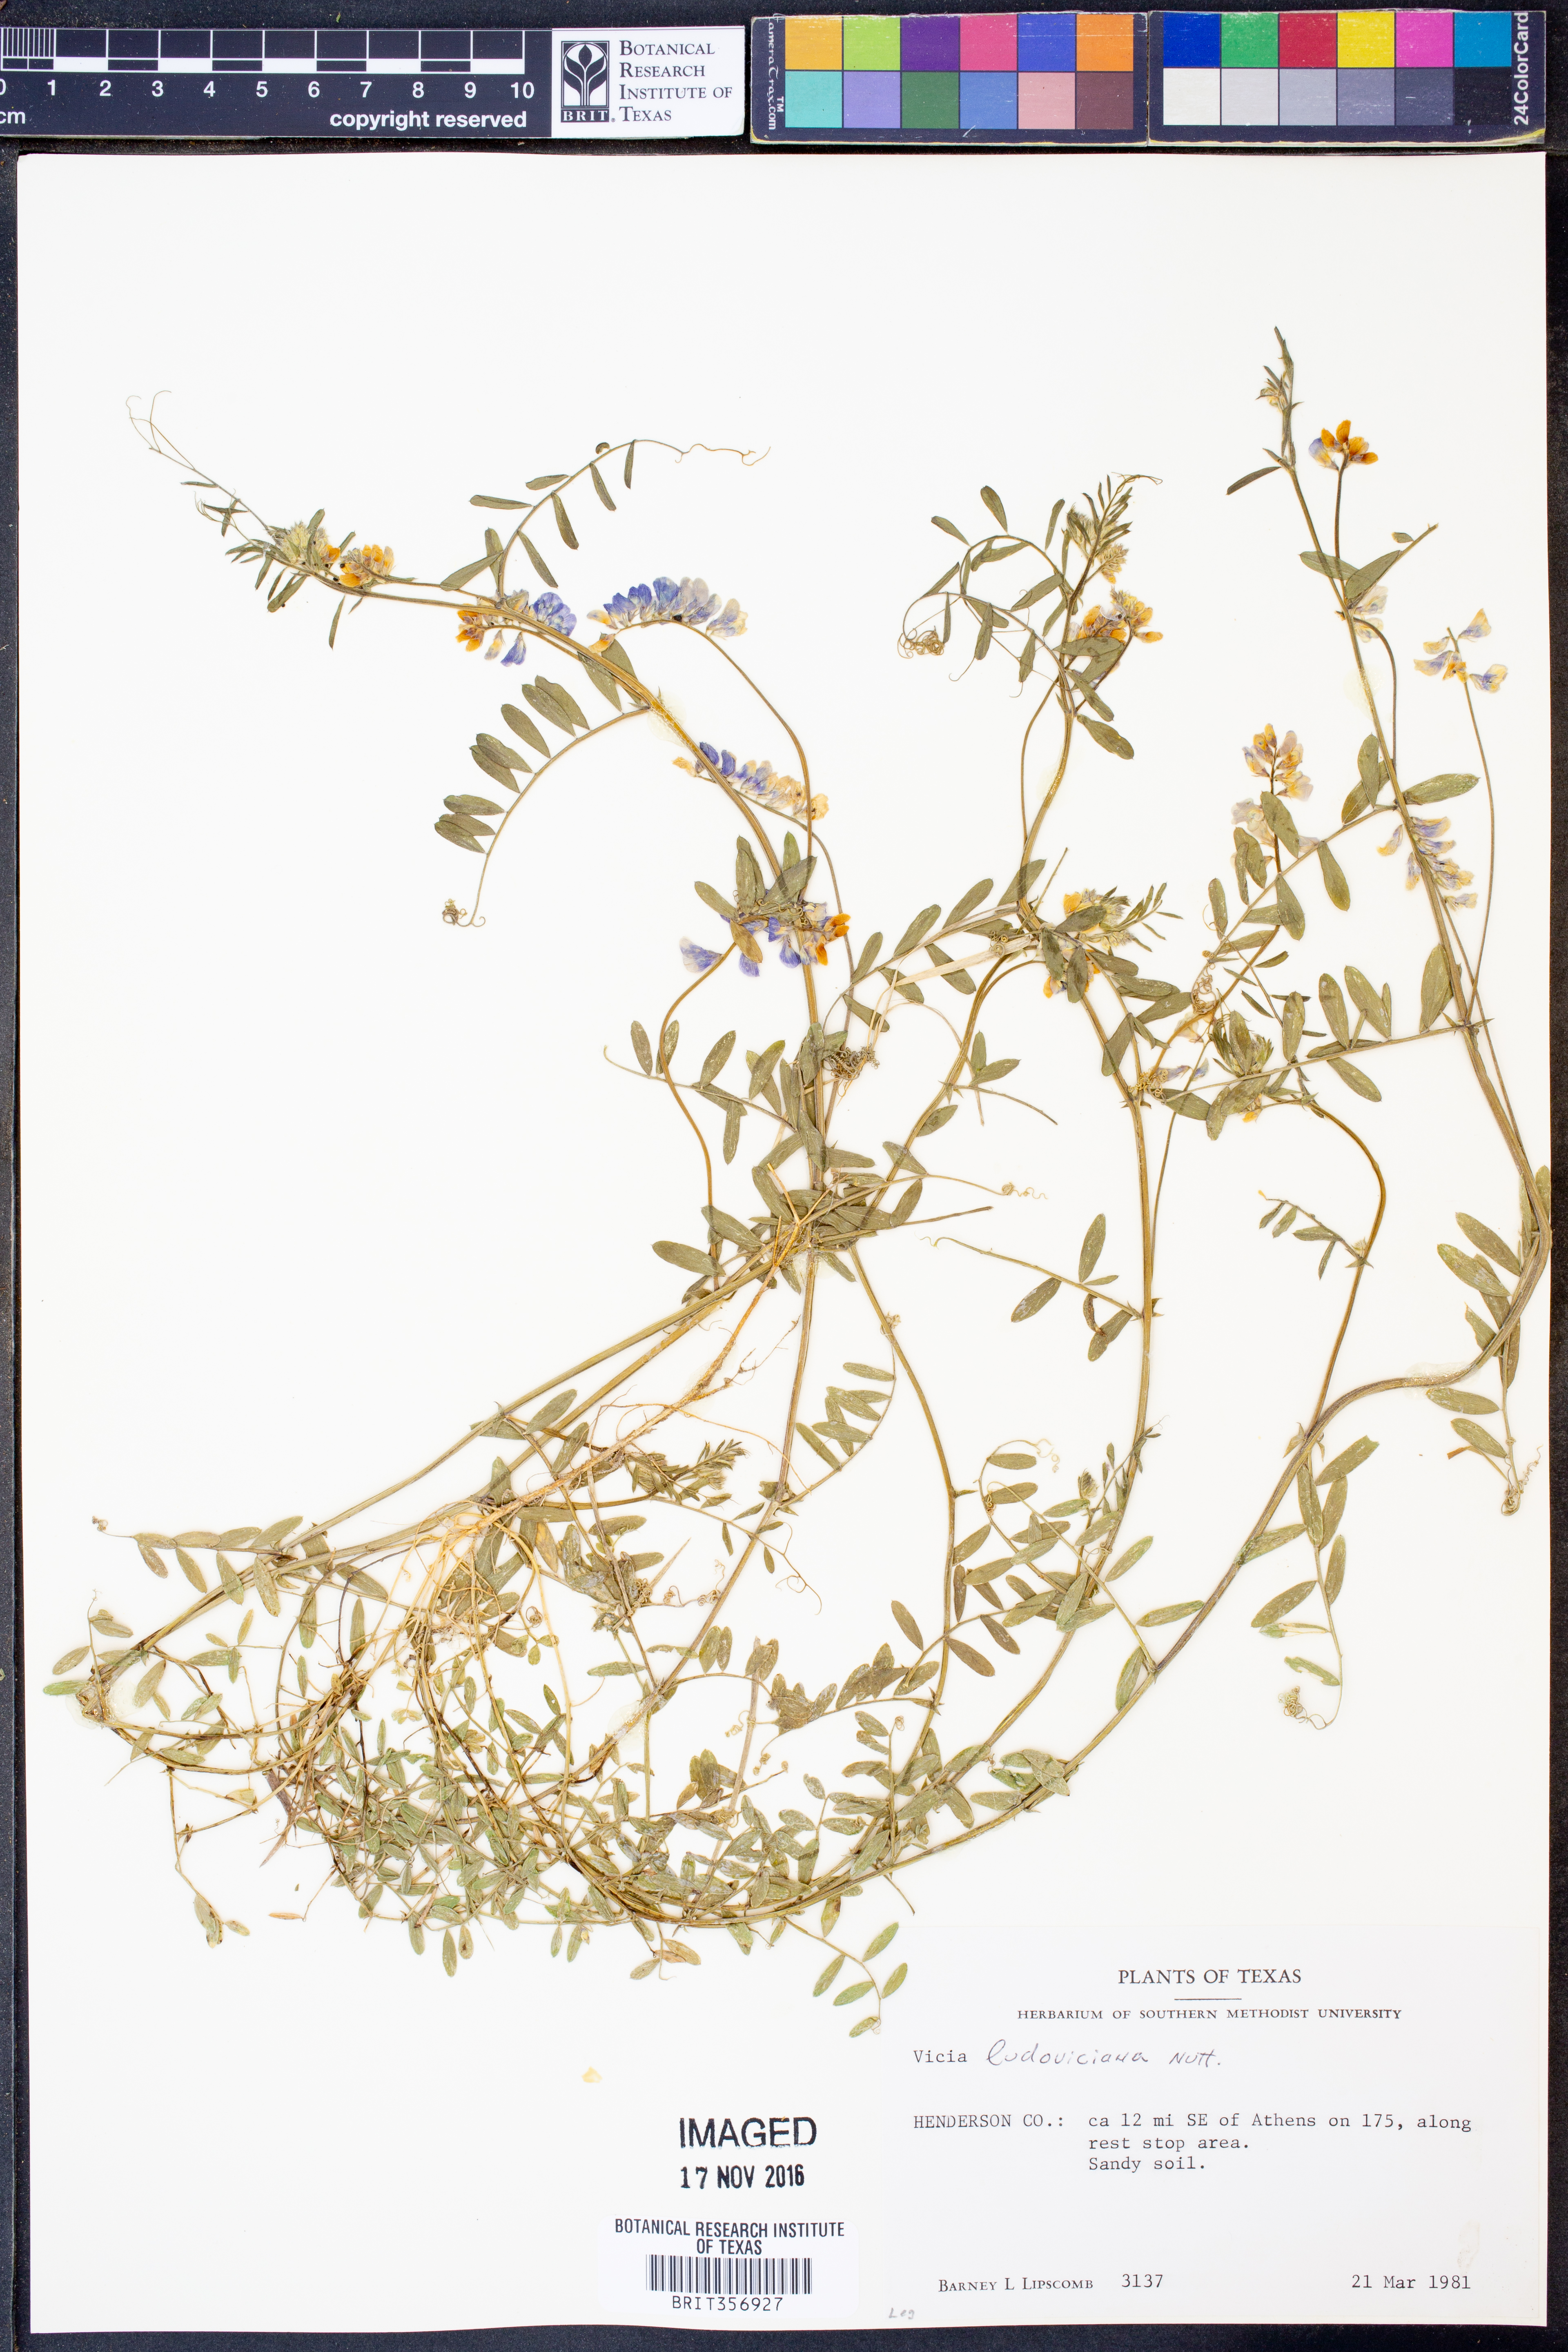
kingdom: Plantae
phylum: Tracheophyta
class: Magnoliopsida
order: Fabales
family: Fabaceae
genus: Vicia
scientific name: Vicia ludoviciana
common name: Louisiana vetch
